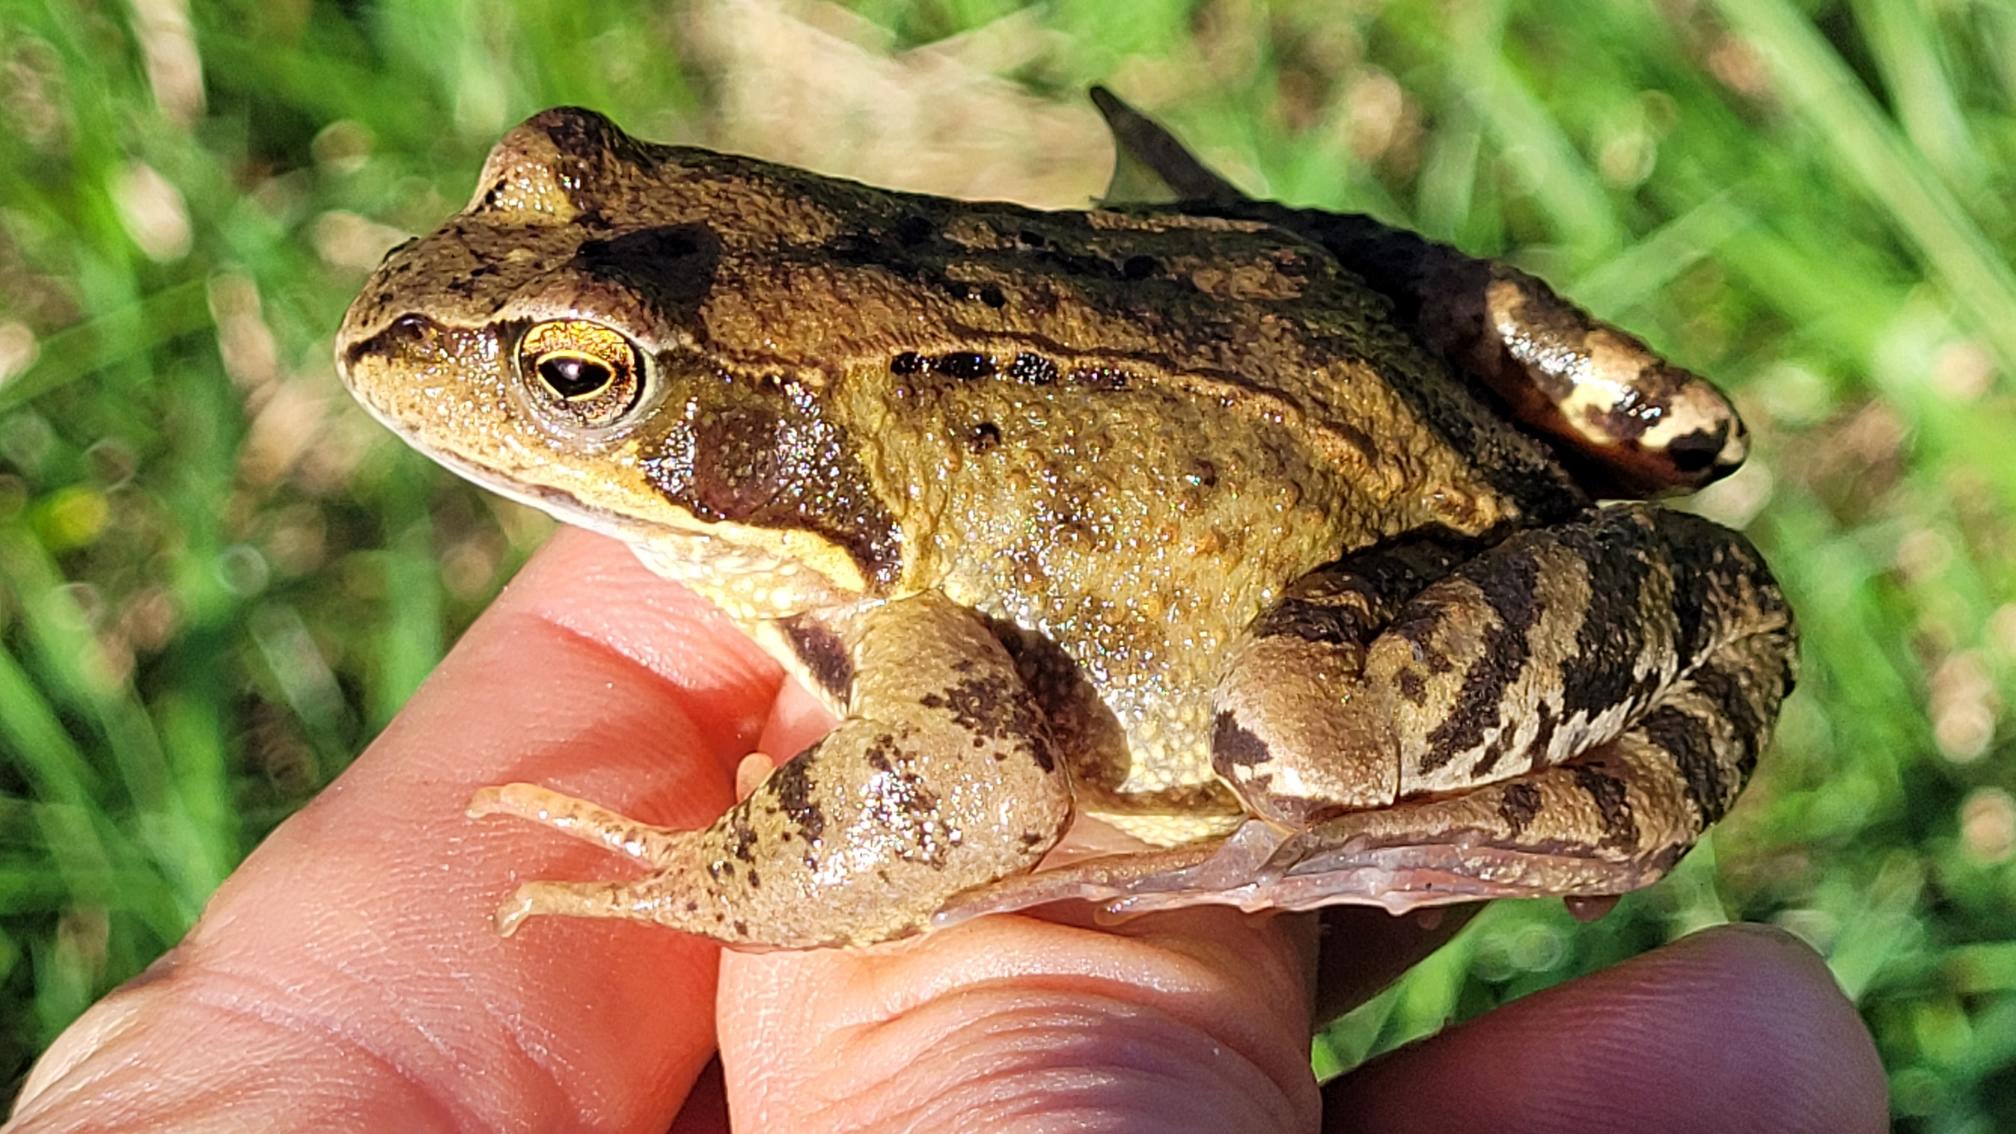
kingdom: Animalia
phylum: Chordata
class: Amphibia
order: Anura
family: Ranidae
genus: Rana
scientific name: Rana temporaria
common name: Butsnudet frø
